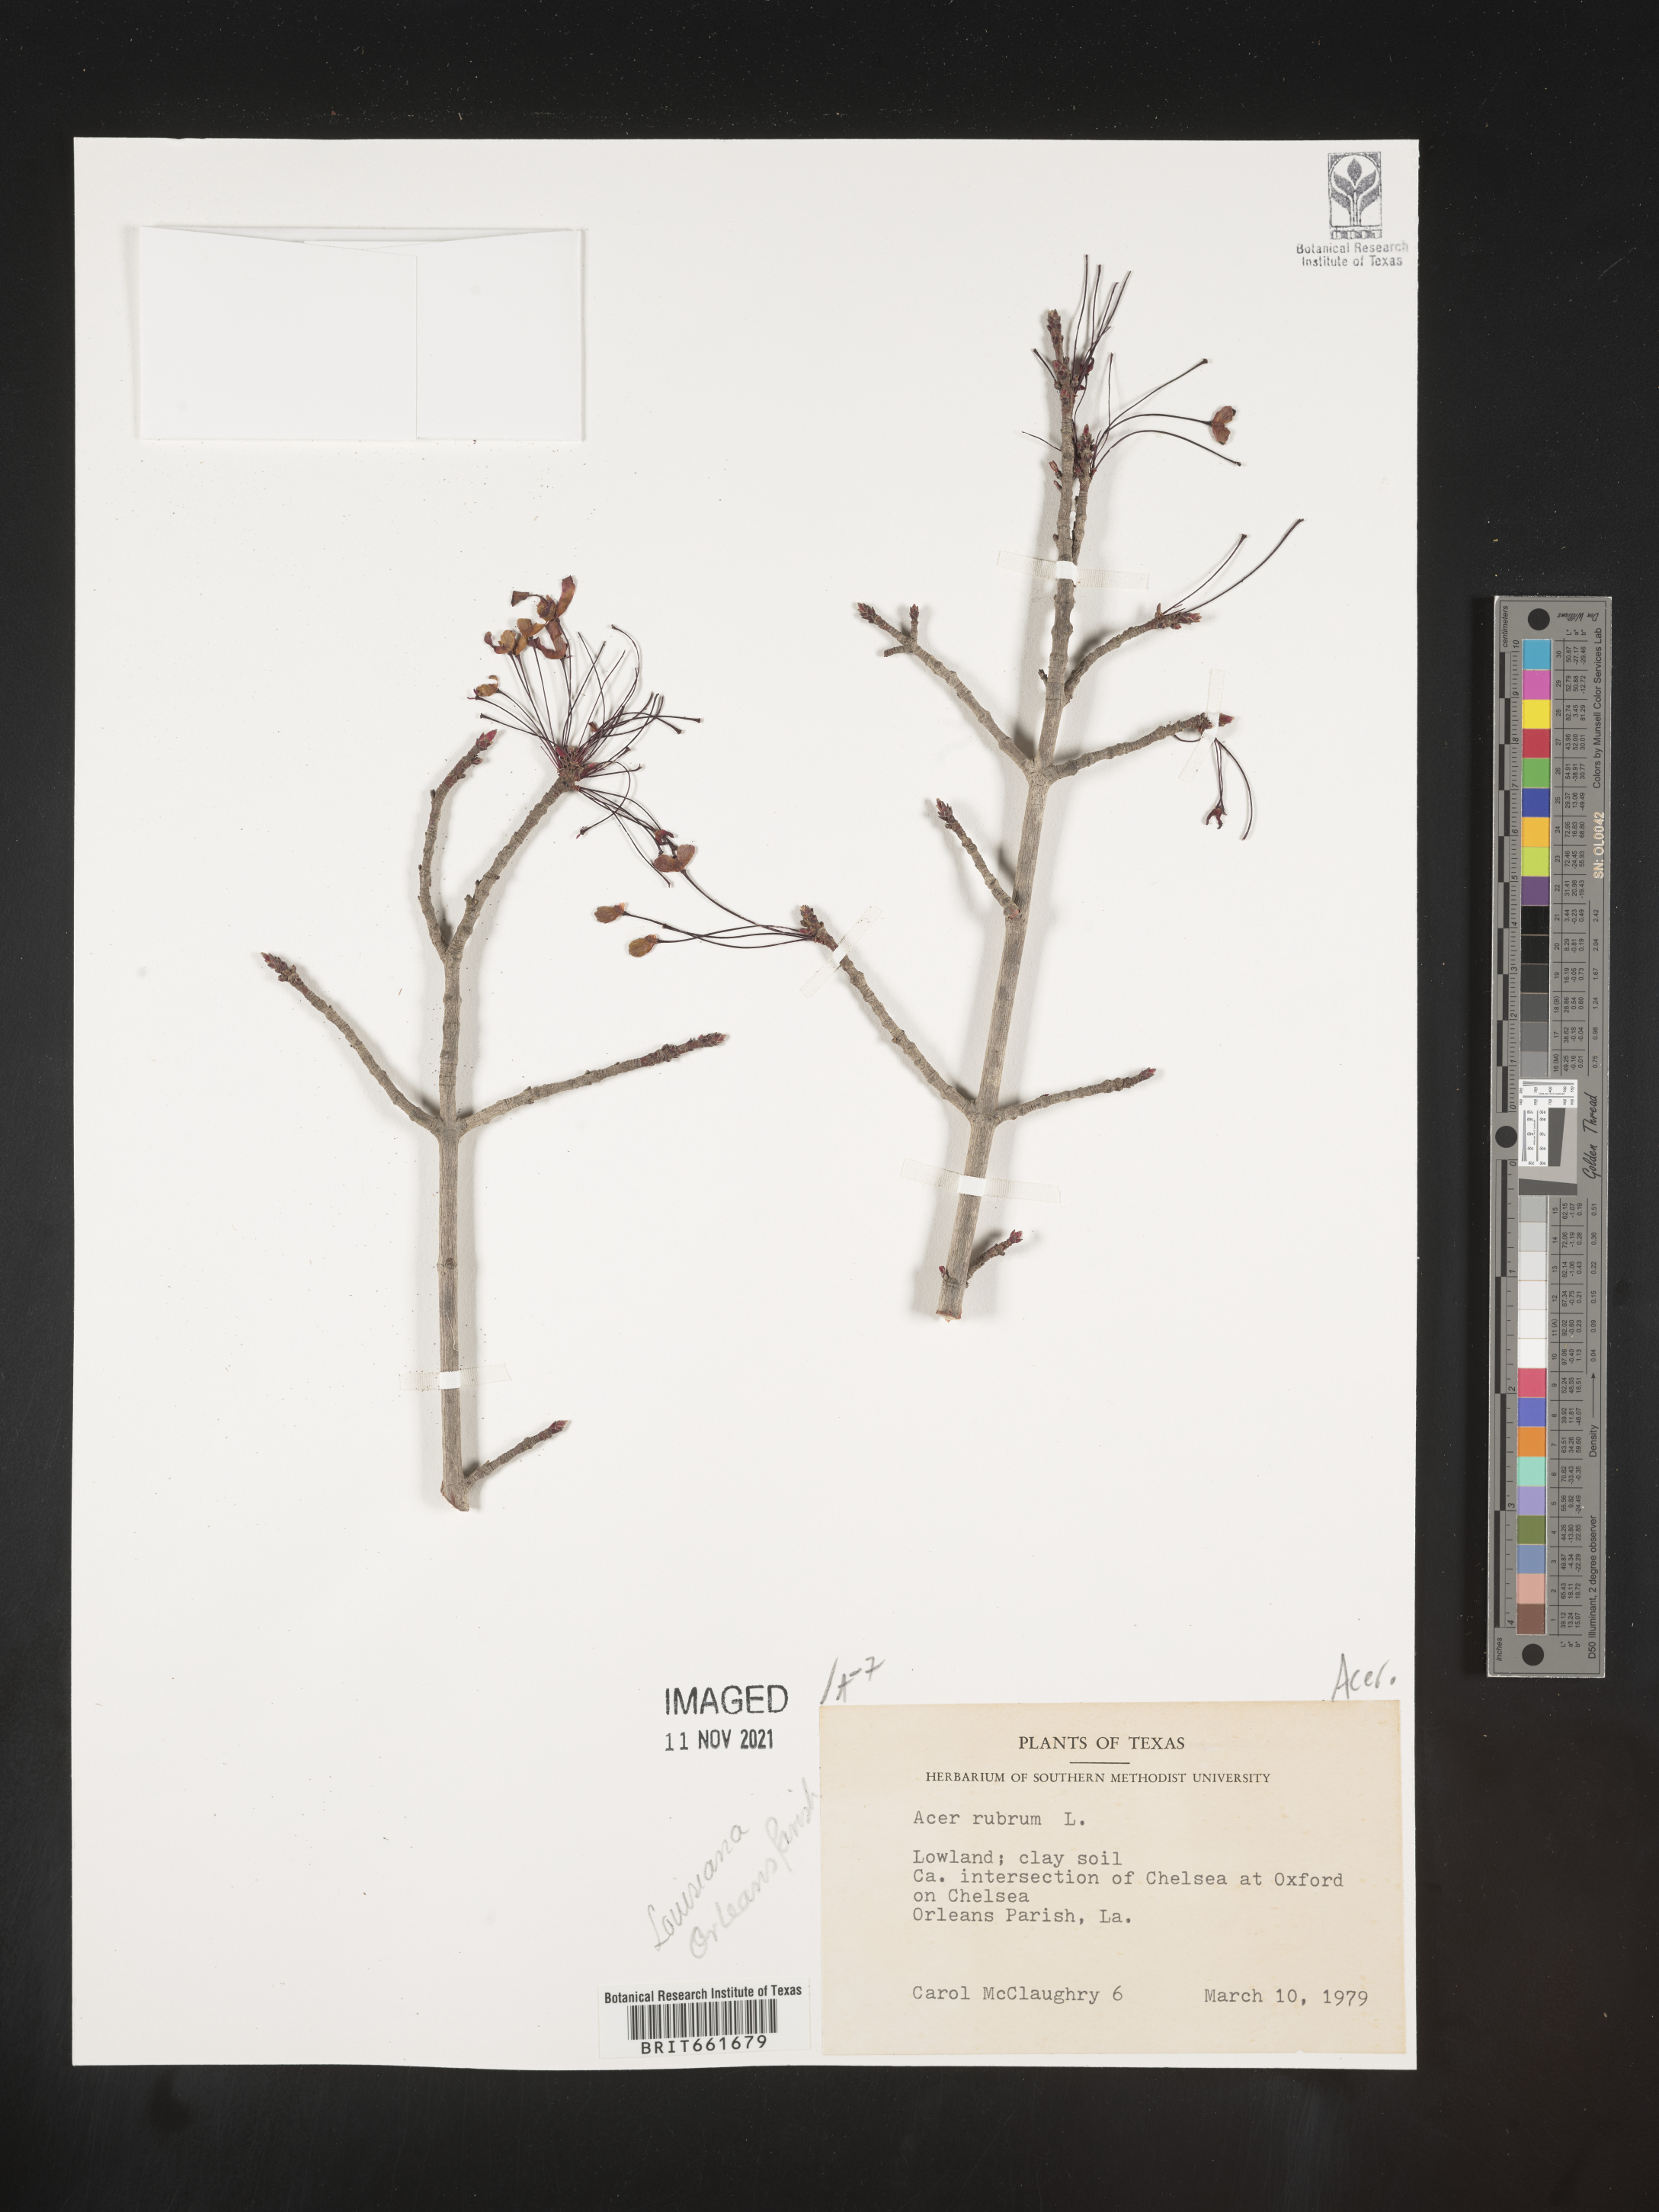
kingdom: Plantae
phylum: Tracheophyta
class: Magnoliopsida
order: Sapindales
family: Sapindaceae
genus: Acer
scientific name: Acer rubrum
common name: Red maple
